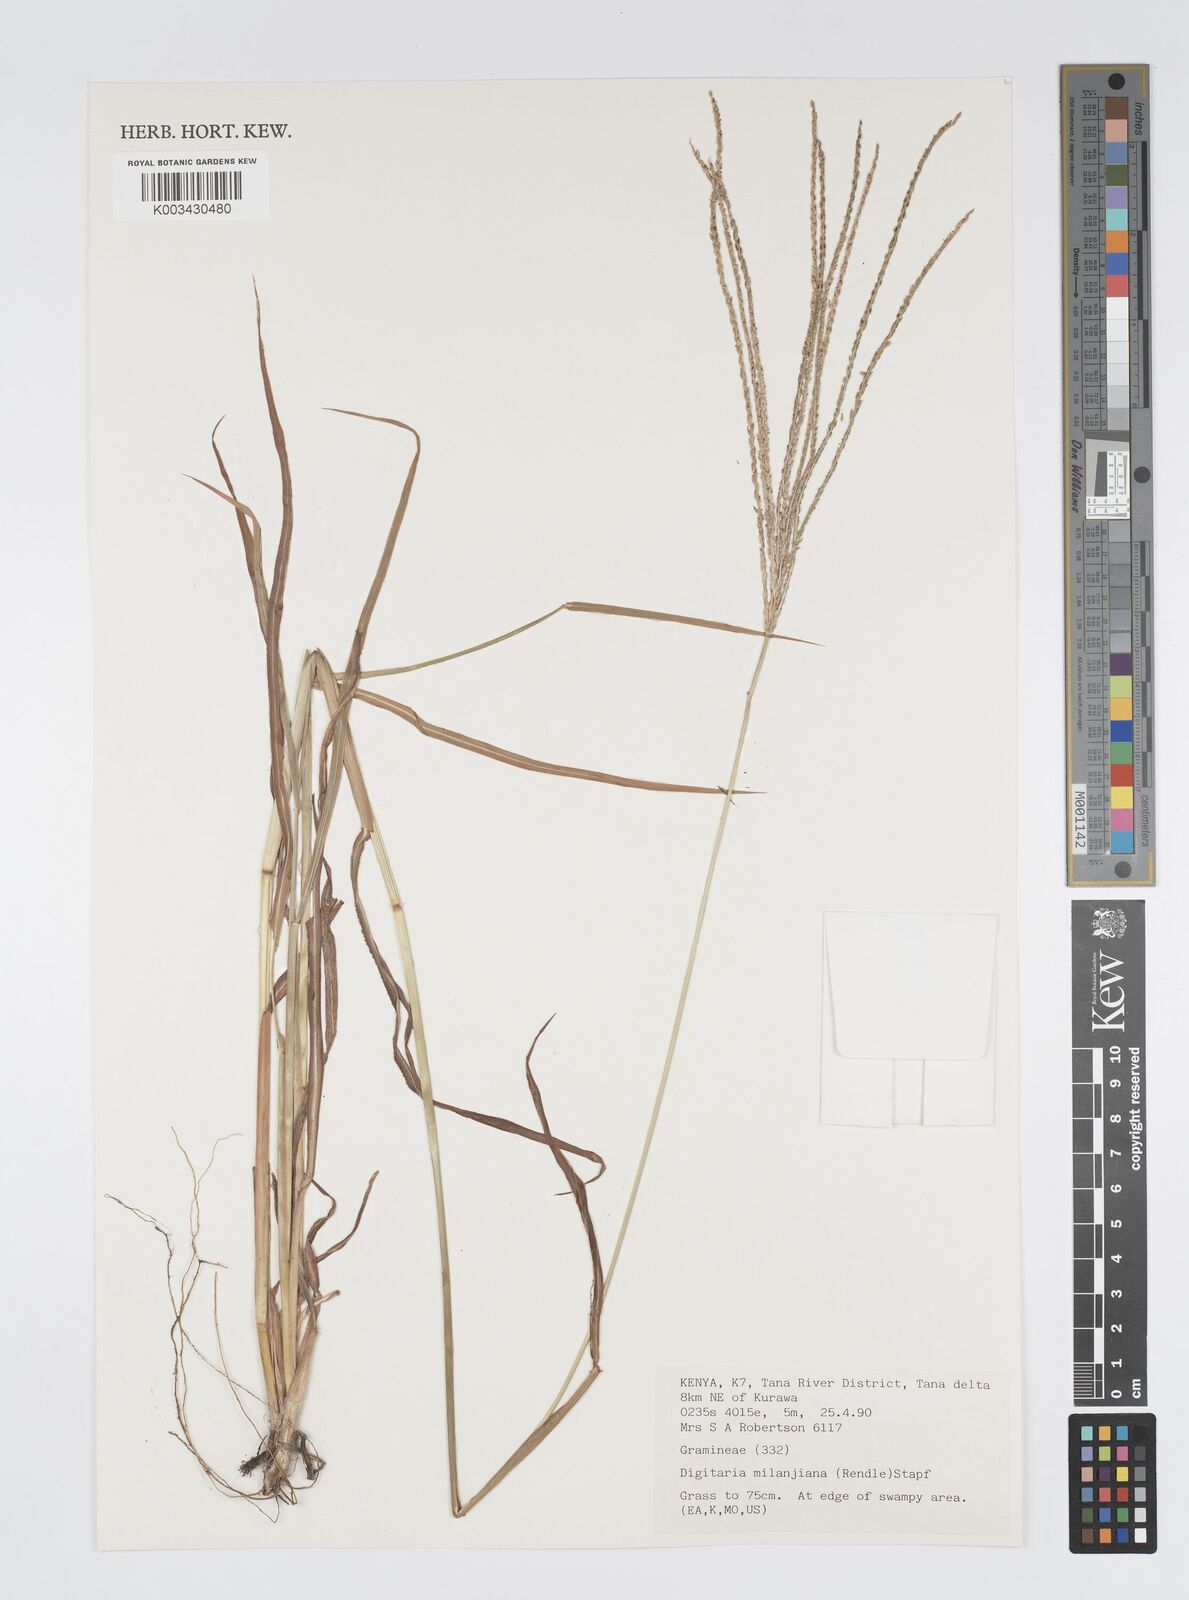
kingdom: Plantae
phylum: Tracheophyta
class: Liliopsida
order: Poales
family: Poaceae
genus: Digitaria
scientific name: Digitaria milanjiana
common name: Madagascar crabgrass
